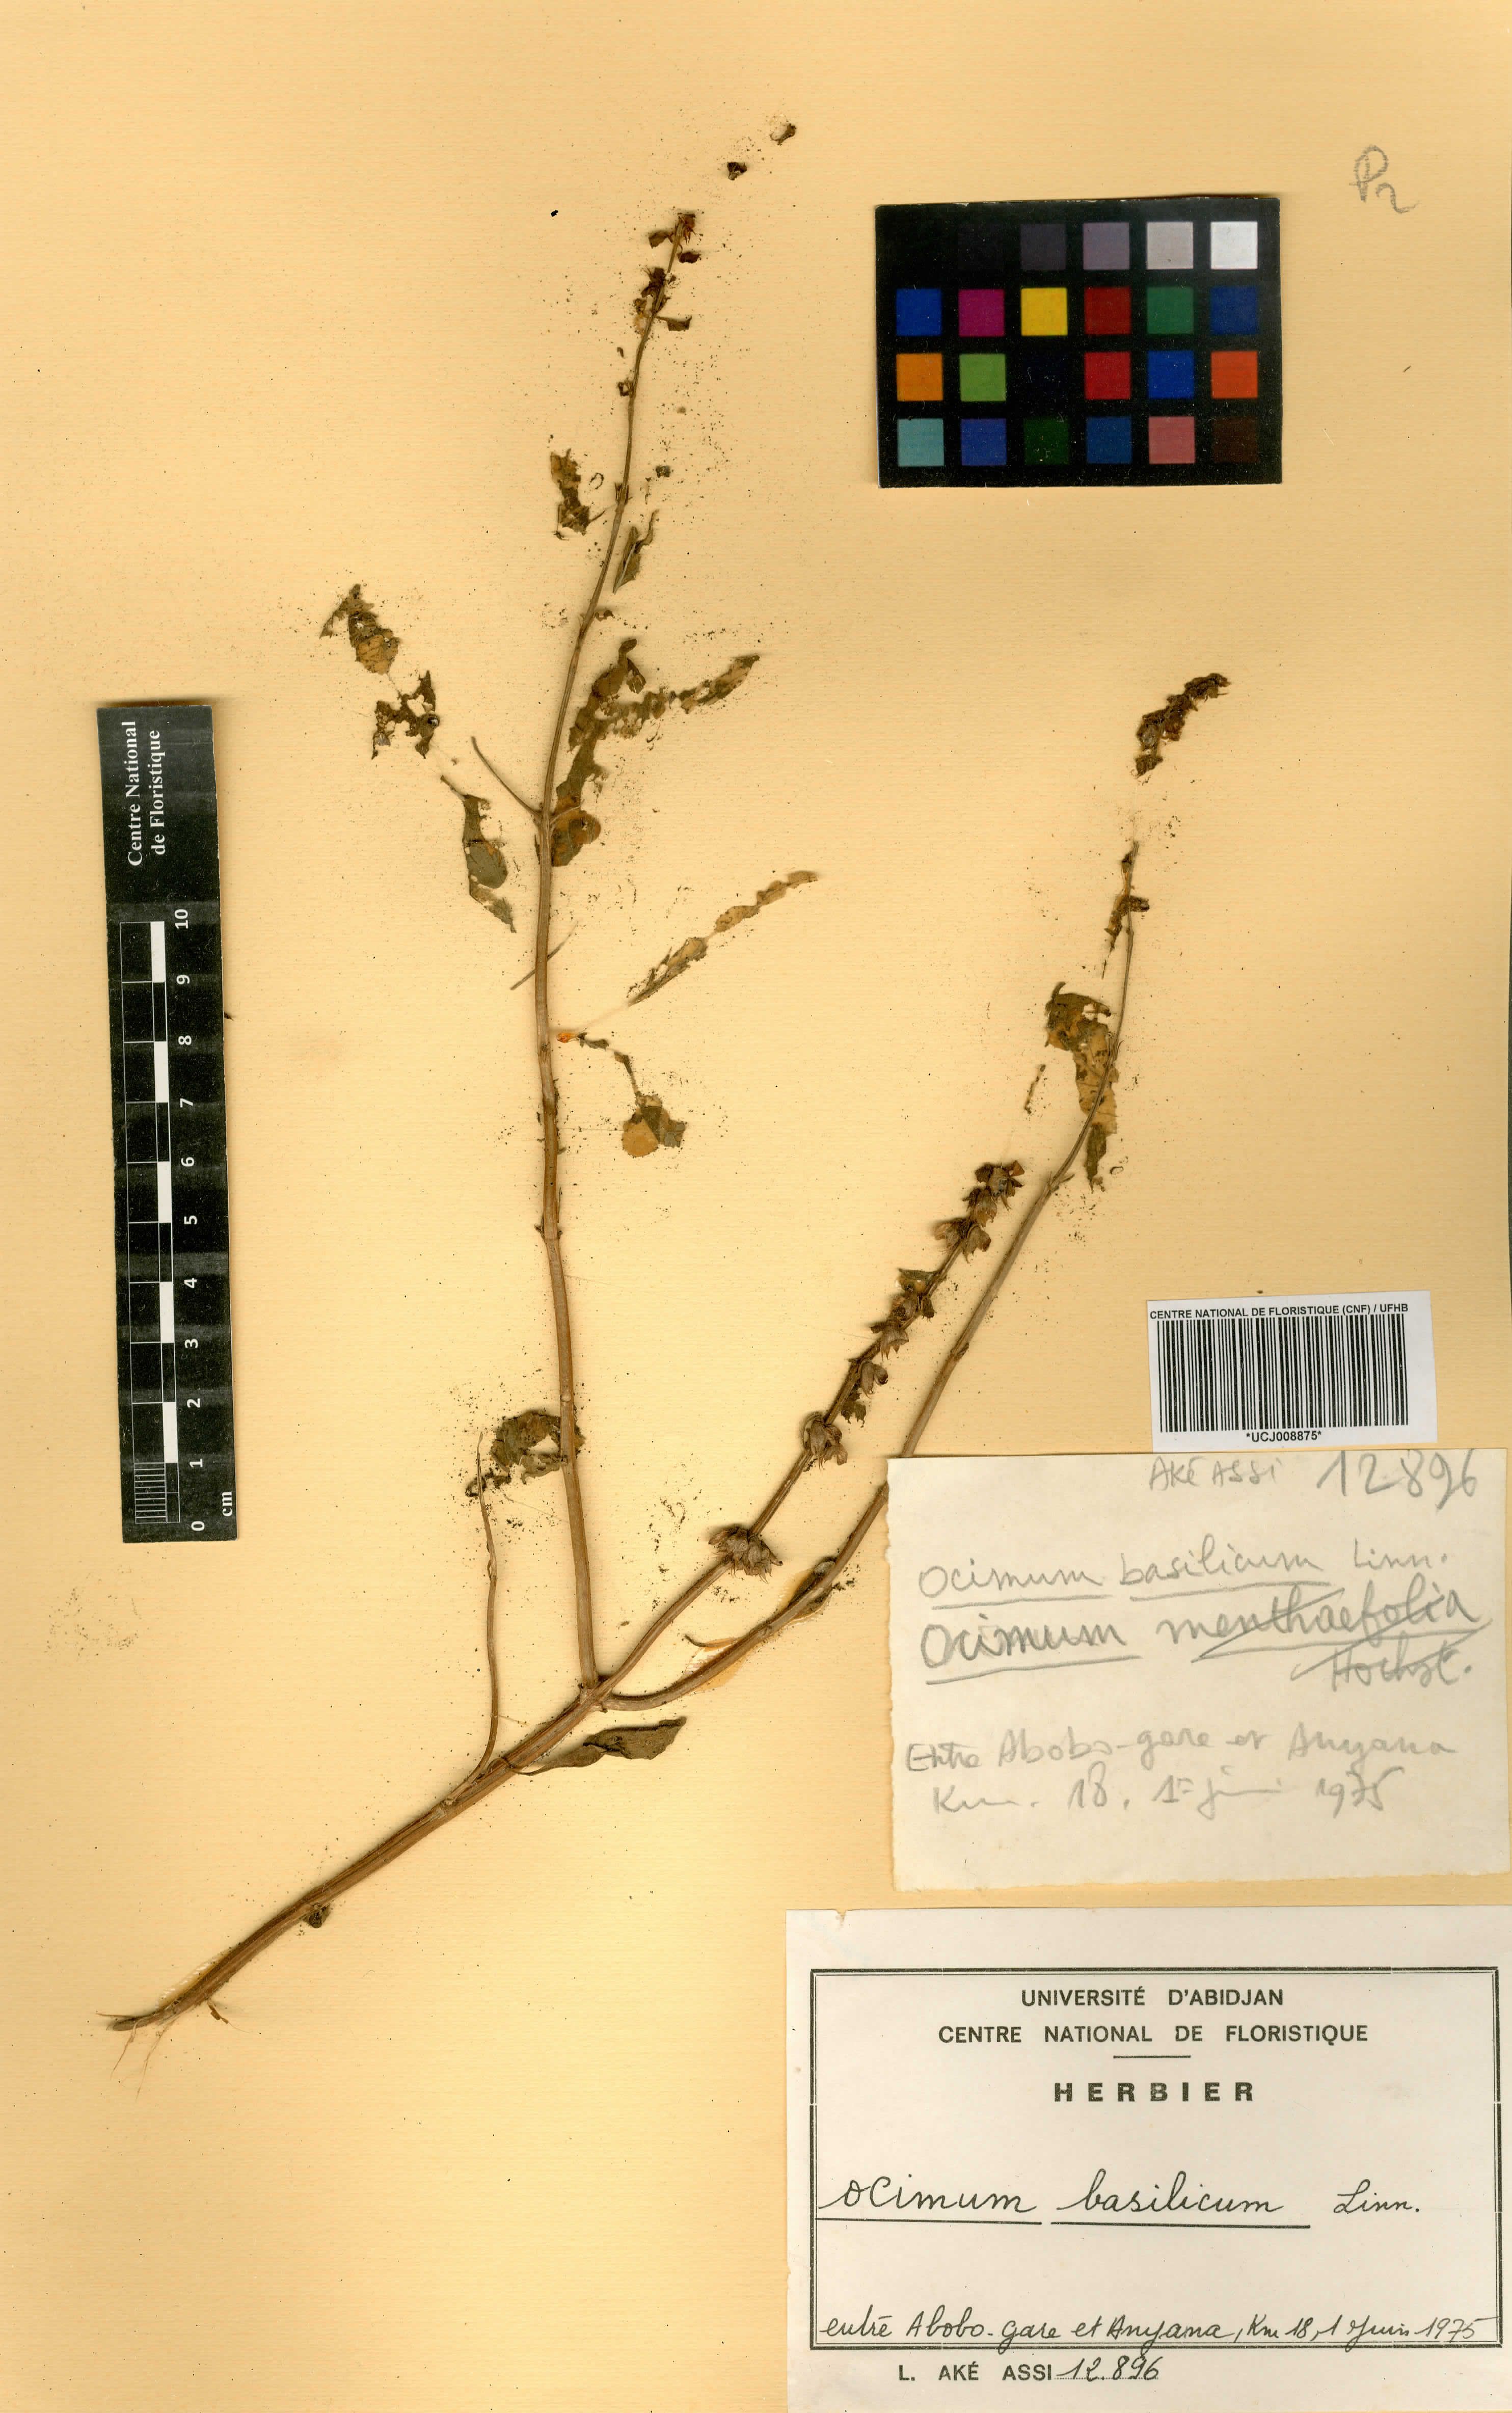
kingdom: Plantae
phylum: Tracheophyta
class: Magnoliopsida
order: Lamiales
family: Lamiaceae
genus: Ocimum
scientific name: Ocimum basilicum
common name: Sweet basil
